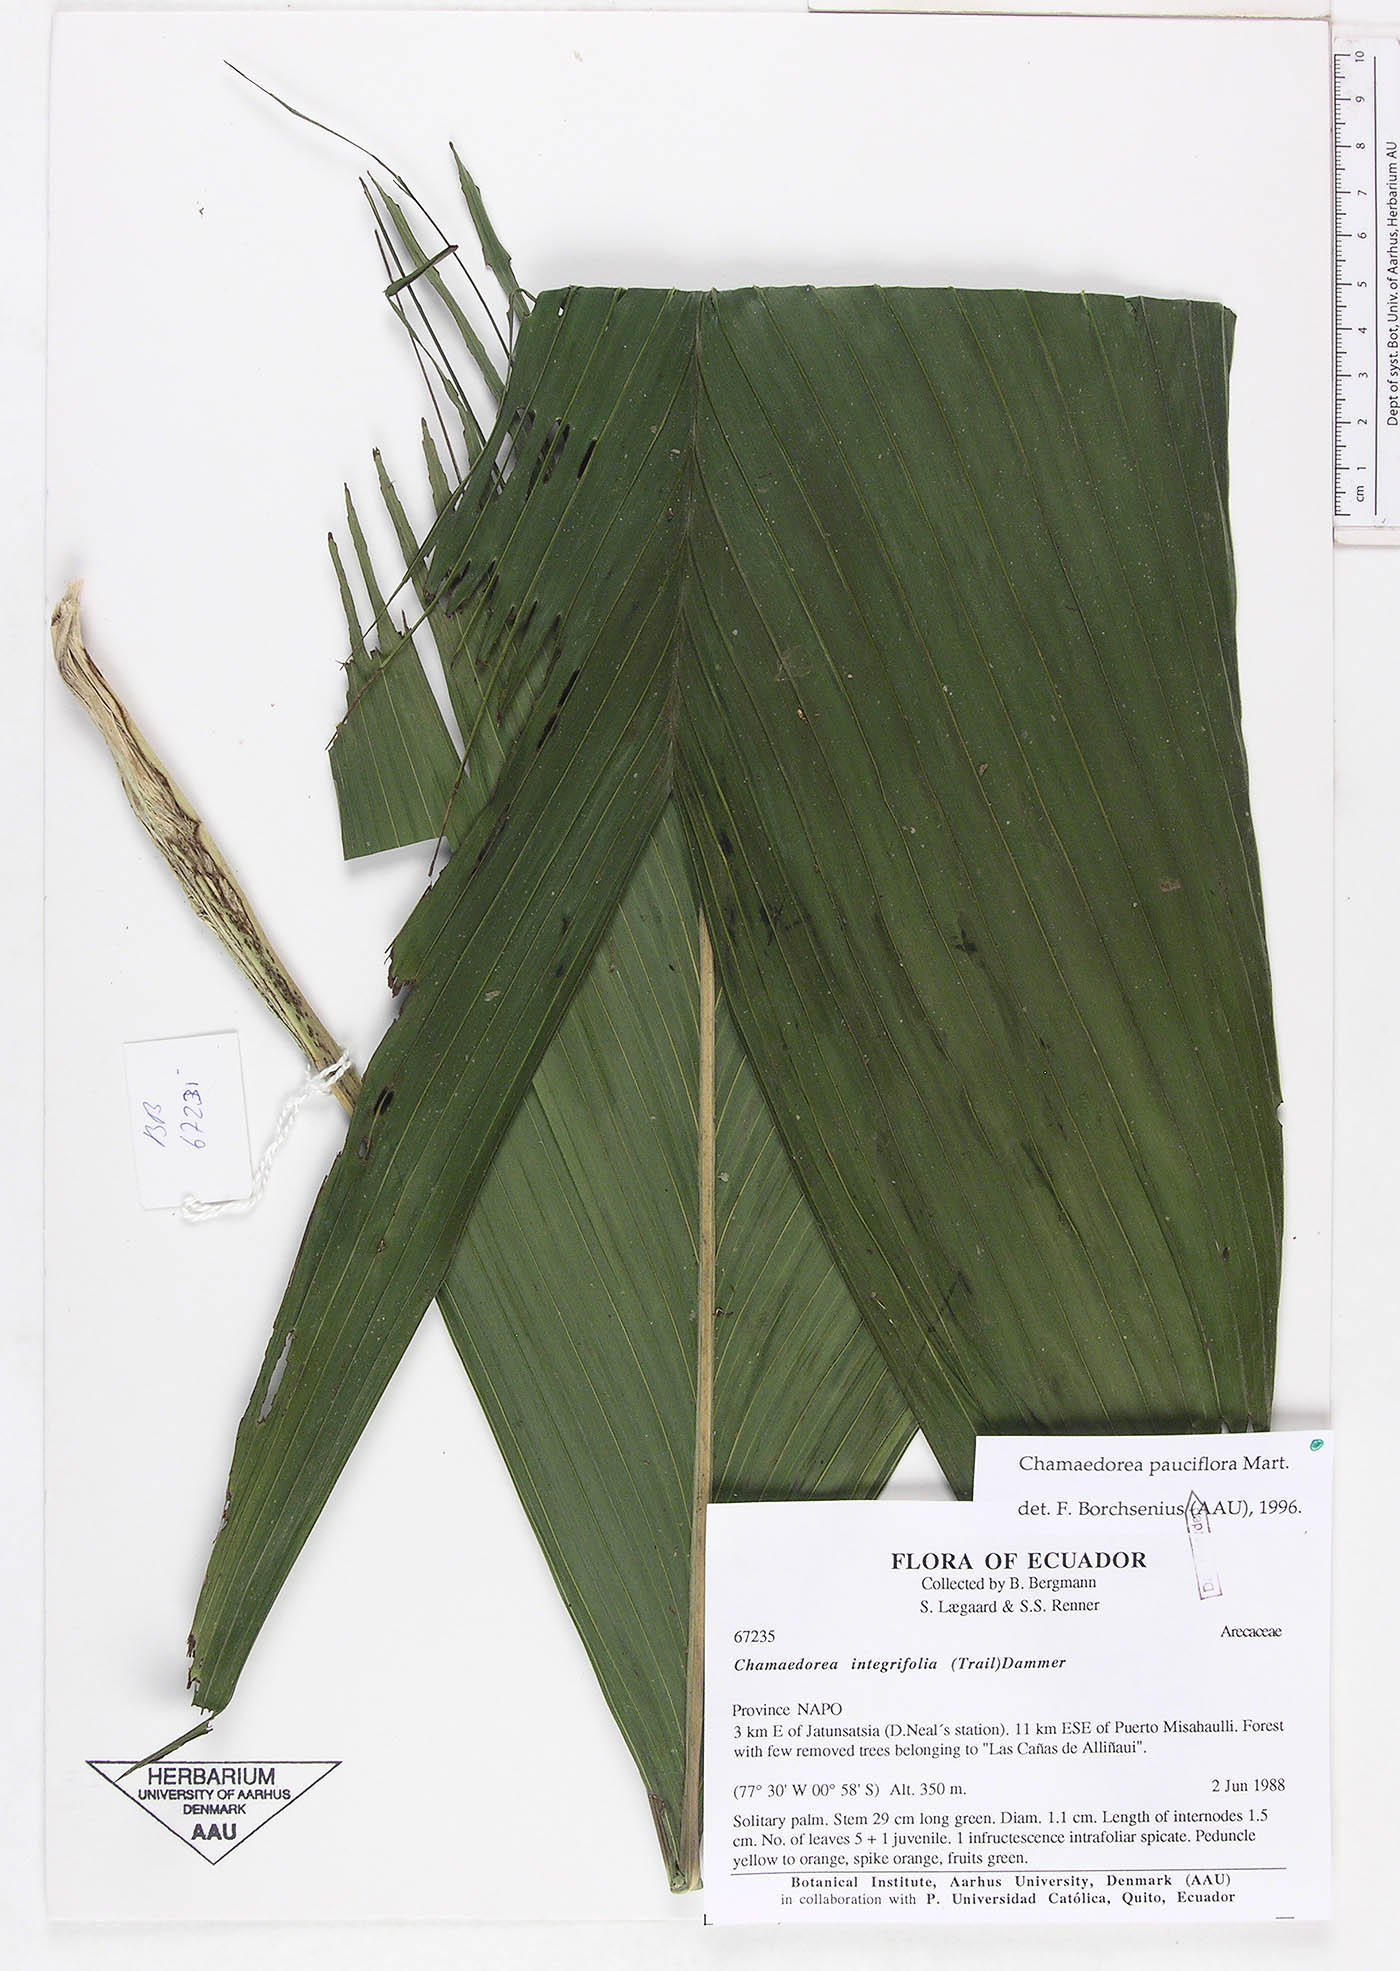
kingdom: Plantae
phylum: Tracheophyta
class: Liliopsida
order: Arecales
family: Arecaceae
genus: Chamaedorea
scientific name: Chamaedorea pauciflora
